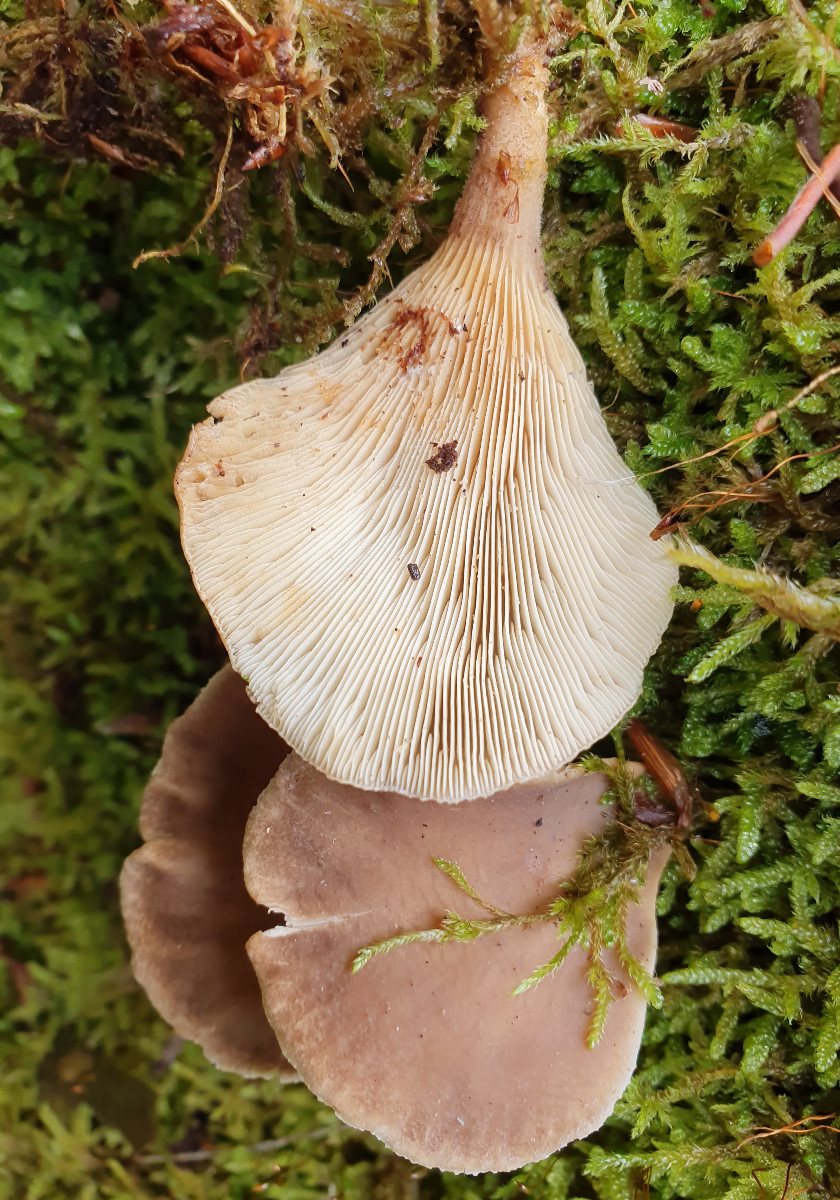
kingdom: Fungi
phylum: Basidiomycota
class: Agaricomycetes
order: Agaricales
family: Pleurotaceae
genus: Hohenbuehelia
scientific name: Hohenbuehelia auriscalpium
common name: spatel-filthat
